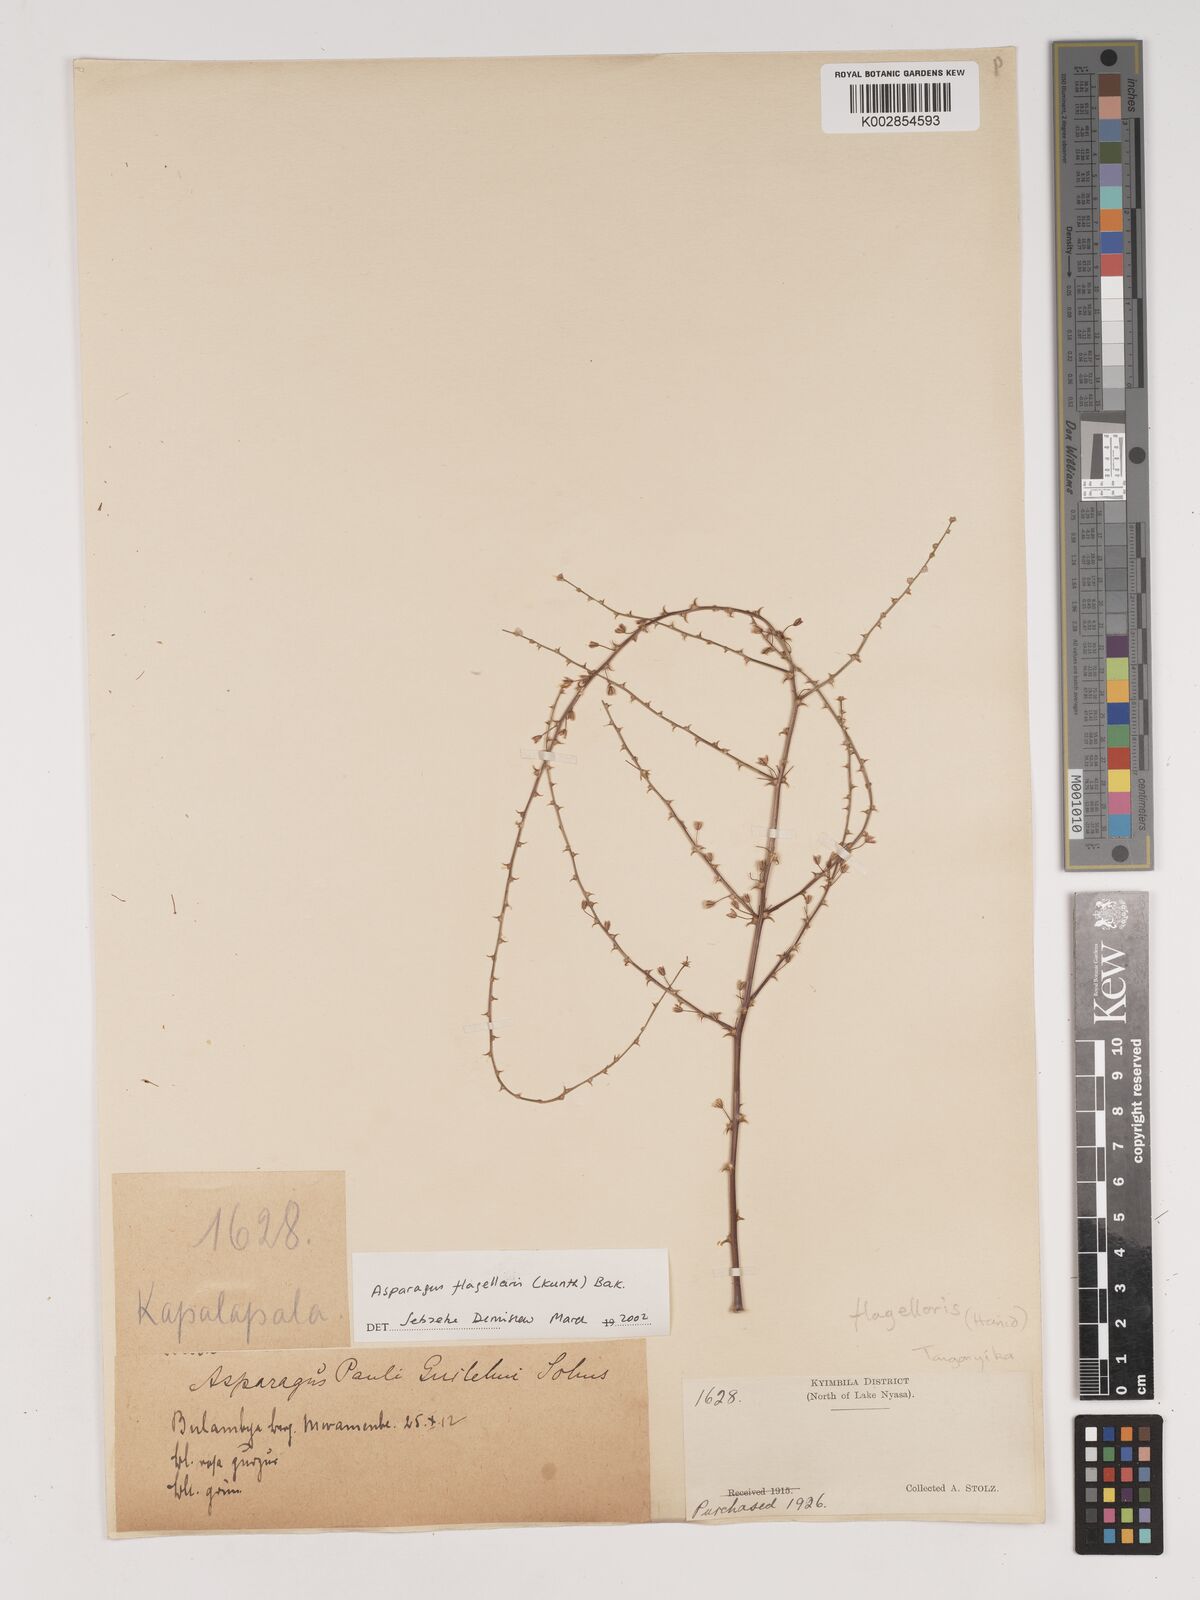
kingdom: Plantae
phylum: Tracheophyta
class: Liliopsida
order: Asparagales
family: Asparagaceae
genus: Asparagus
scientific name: Asparagus flagellaris
